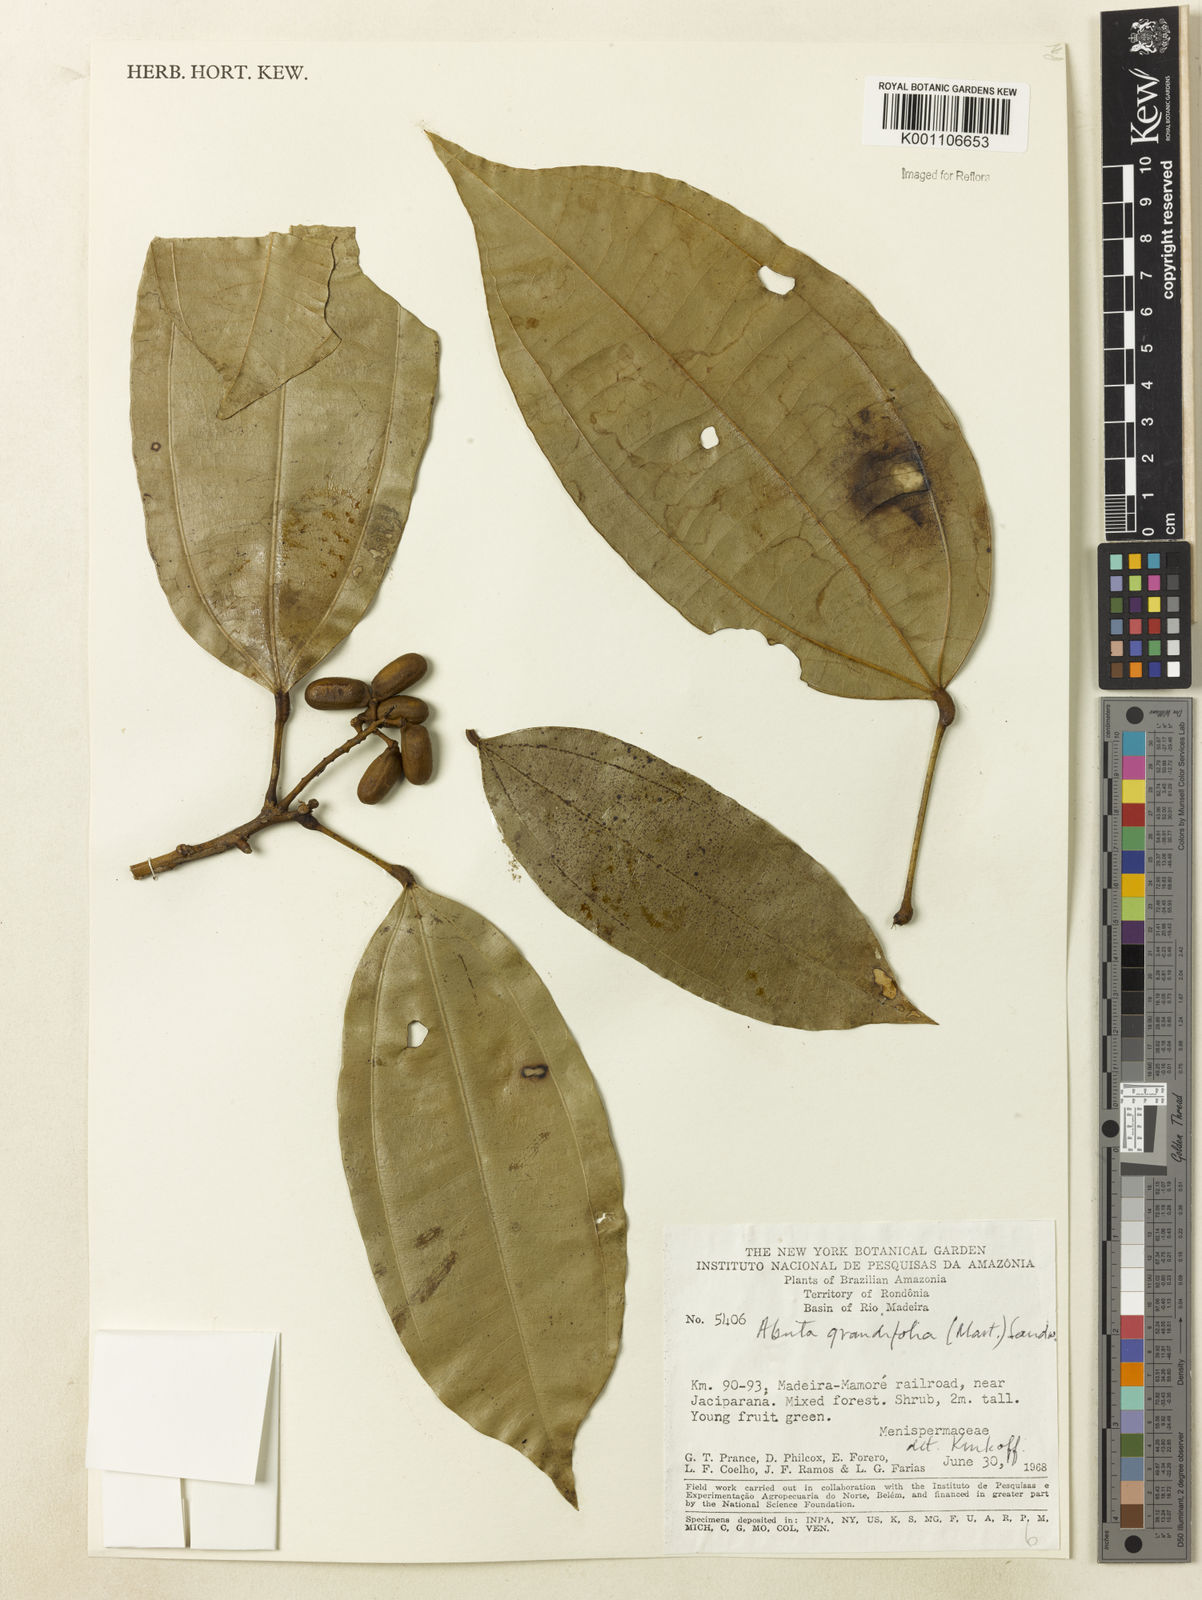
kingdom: Plantae
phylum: Tracheophyta
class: Magnoliopsida
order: Ranunculales
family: Menispermaceae
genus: Abuta
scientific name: Abuta grandifolia
